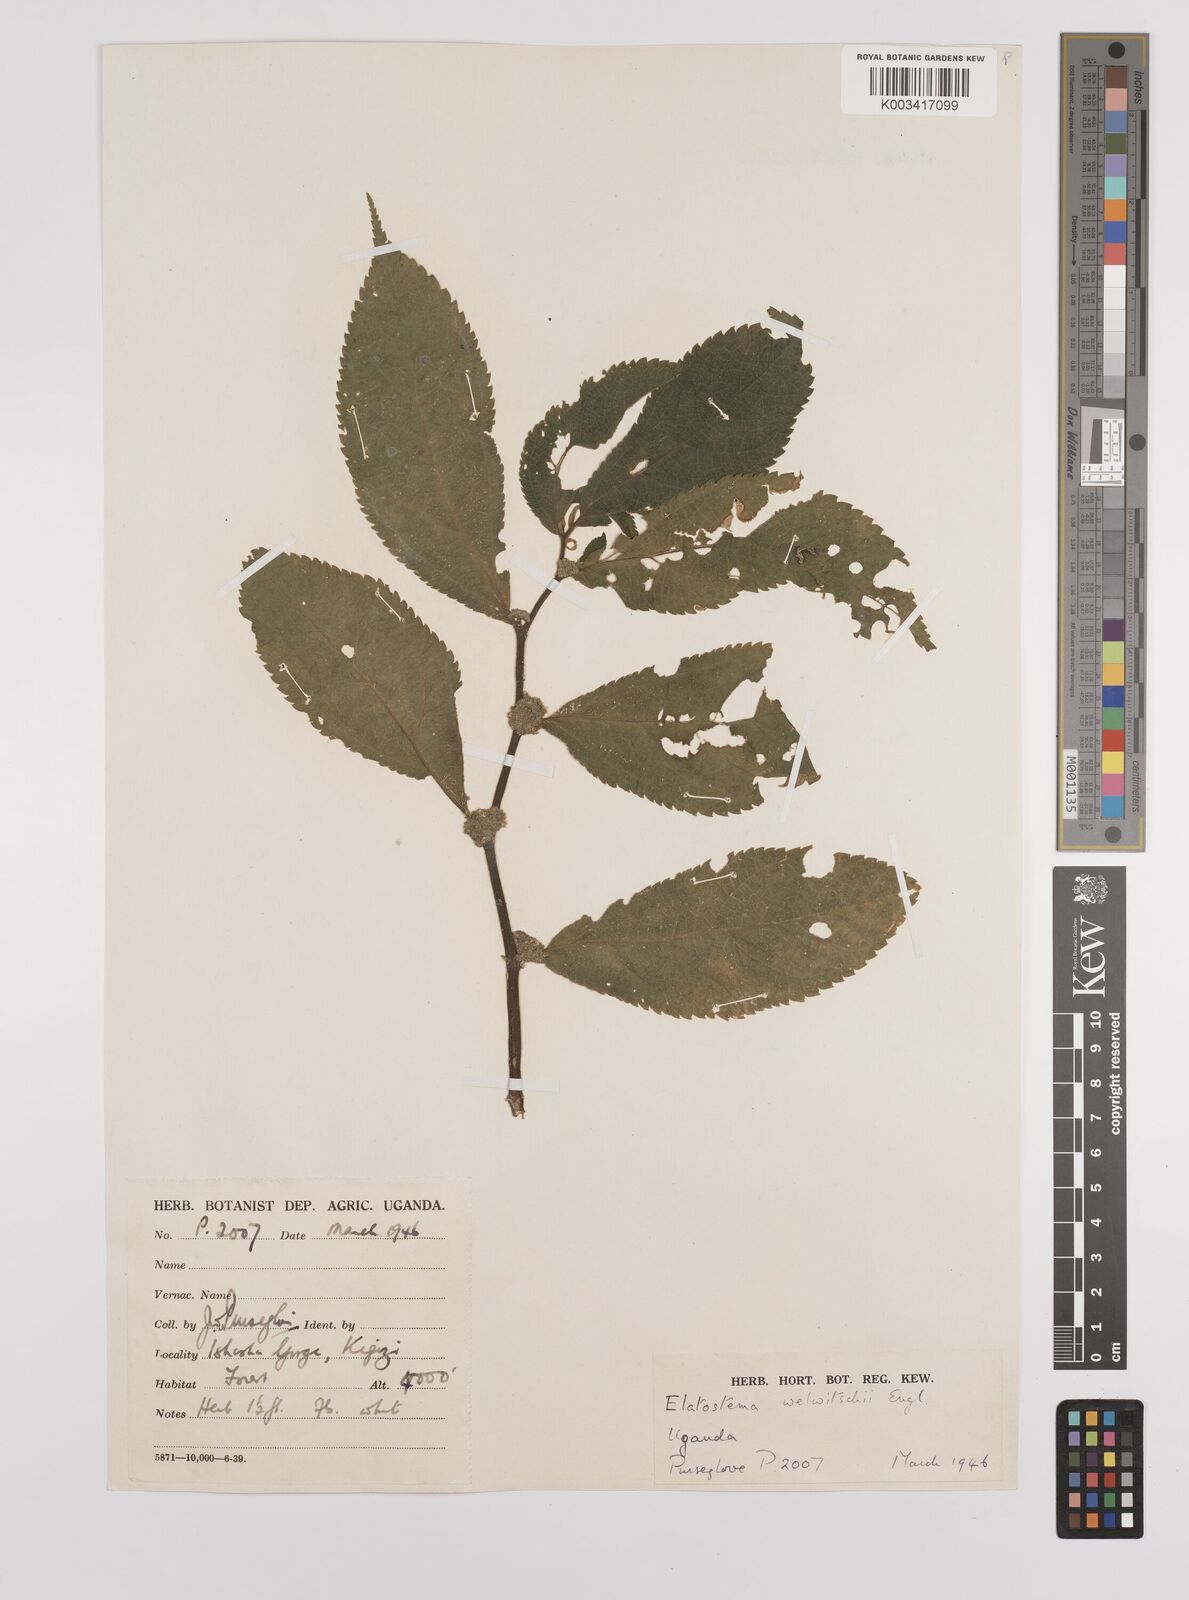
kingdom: Plantae
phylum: Tracheophyta
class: Magnoliopsida
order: Rosales
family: Urticaceae
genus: Elatostema
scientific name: Elatostema welwitschii
